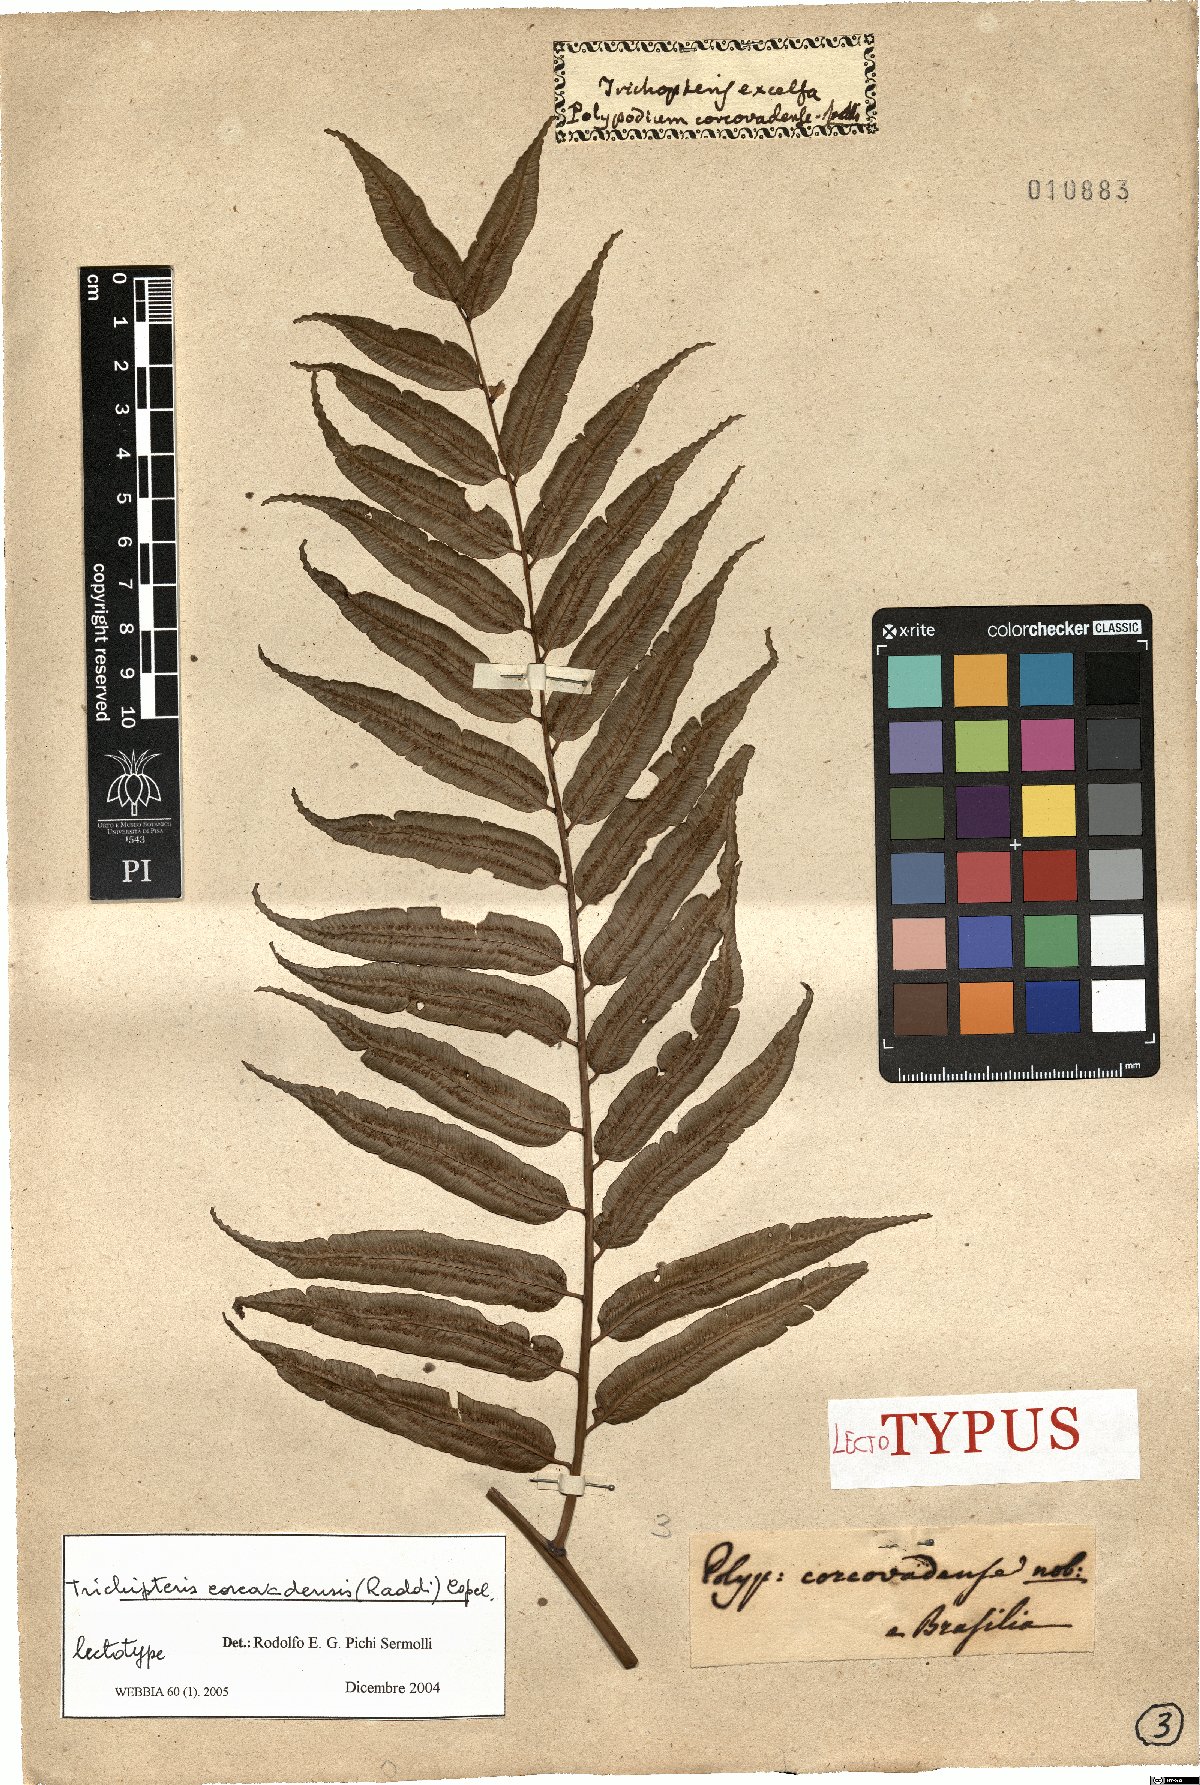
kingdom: Plantae
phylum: Tracheophyta
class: Polypodiopsida
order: Cyatheales
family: Cyatheaceae
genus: Cyathea
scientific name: Cyathea corcovadensis
